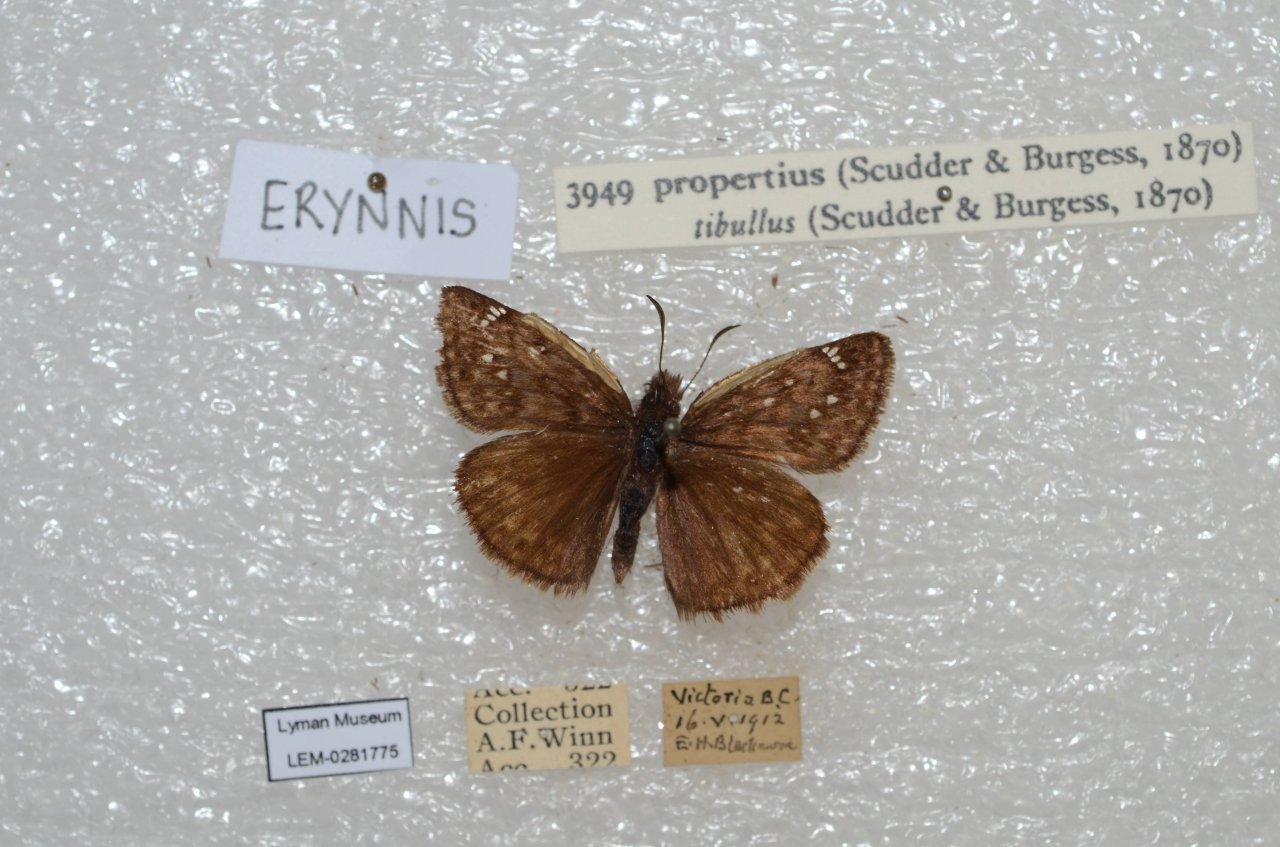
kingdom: Animalia
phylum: Arthropoda
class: Insecta
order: Lepidoptera
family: Hesperiidae
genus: Erynnis
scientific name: Erynnis propertius
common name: Propertius Duskywing
